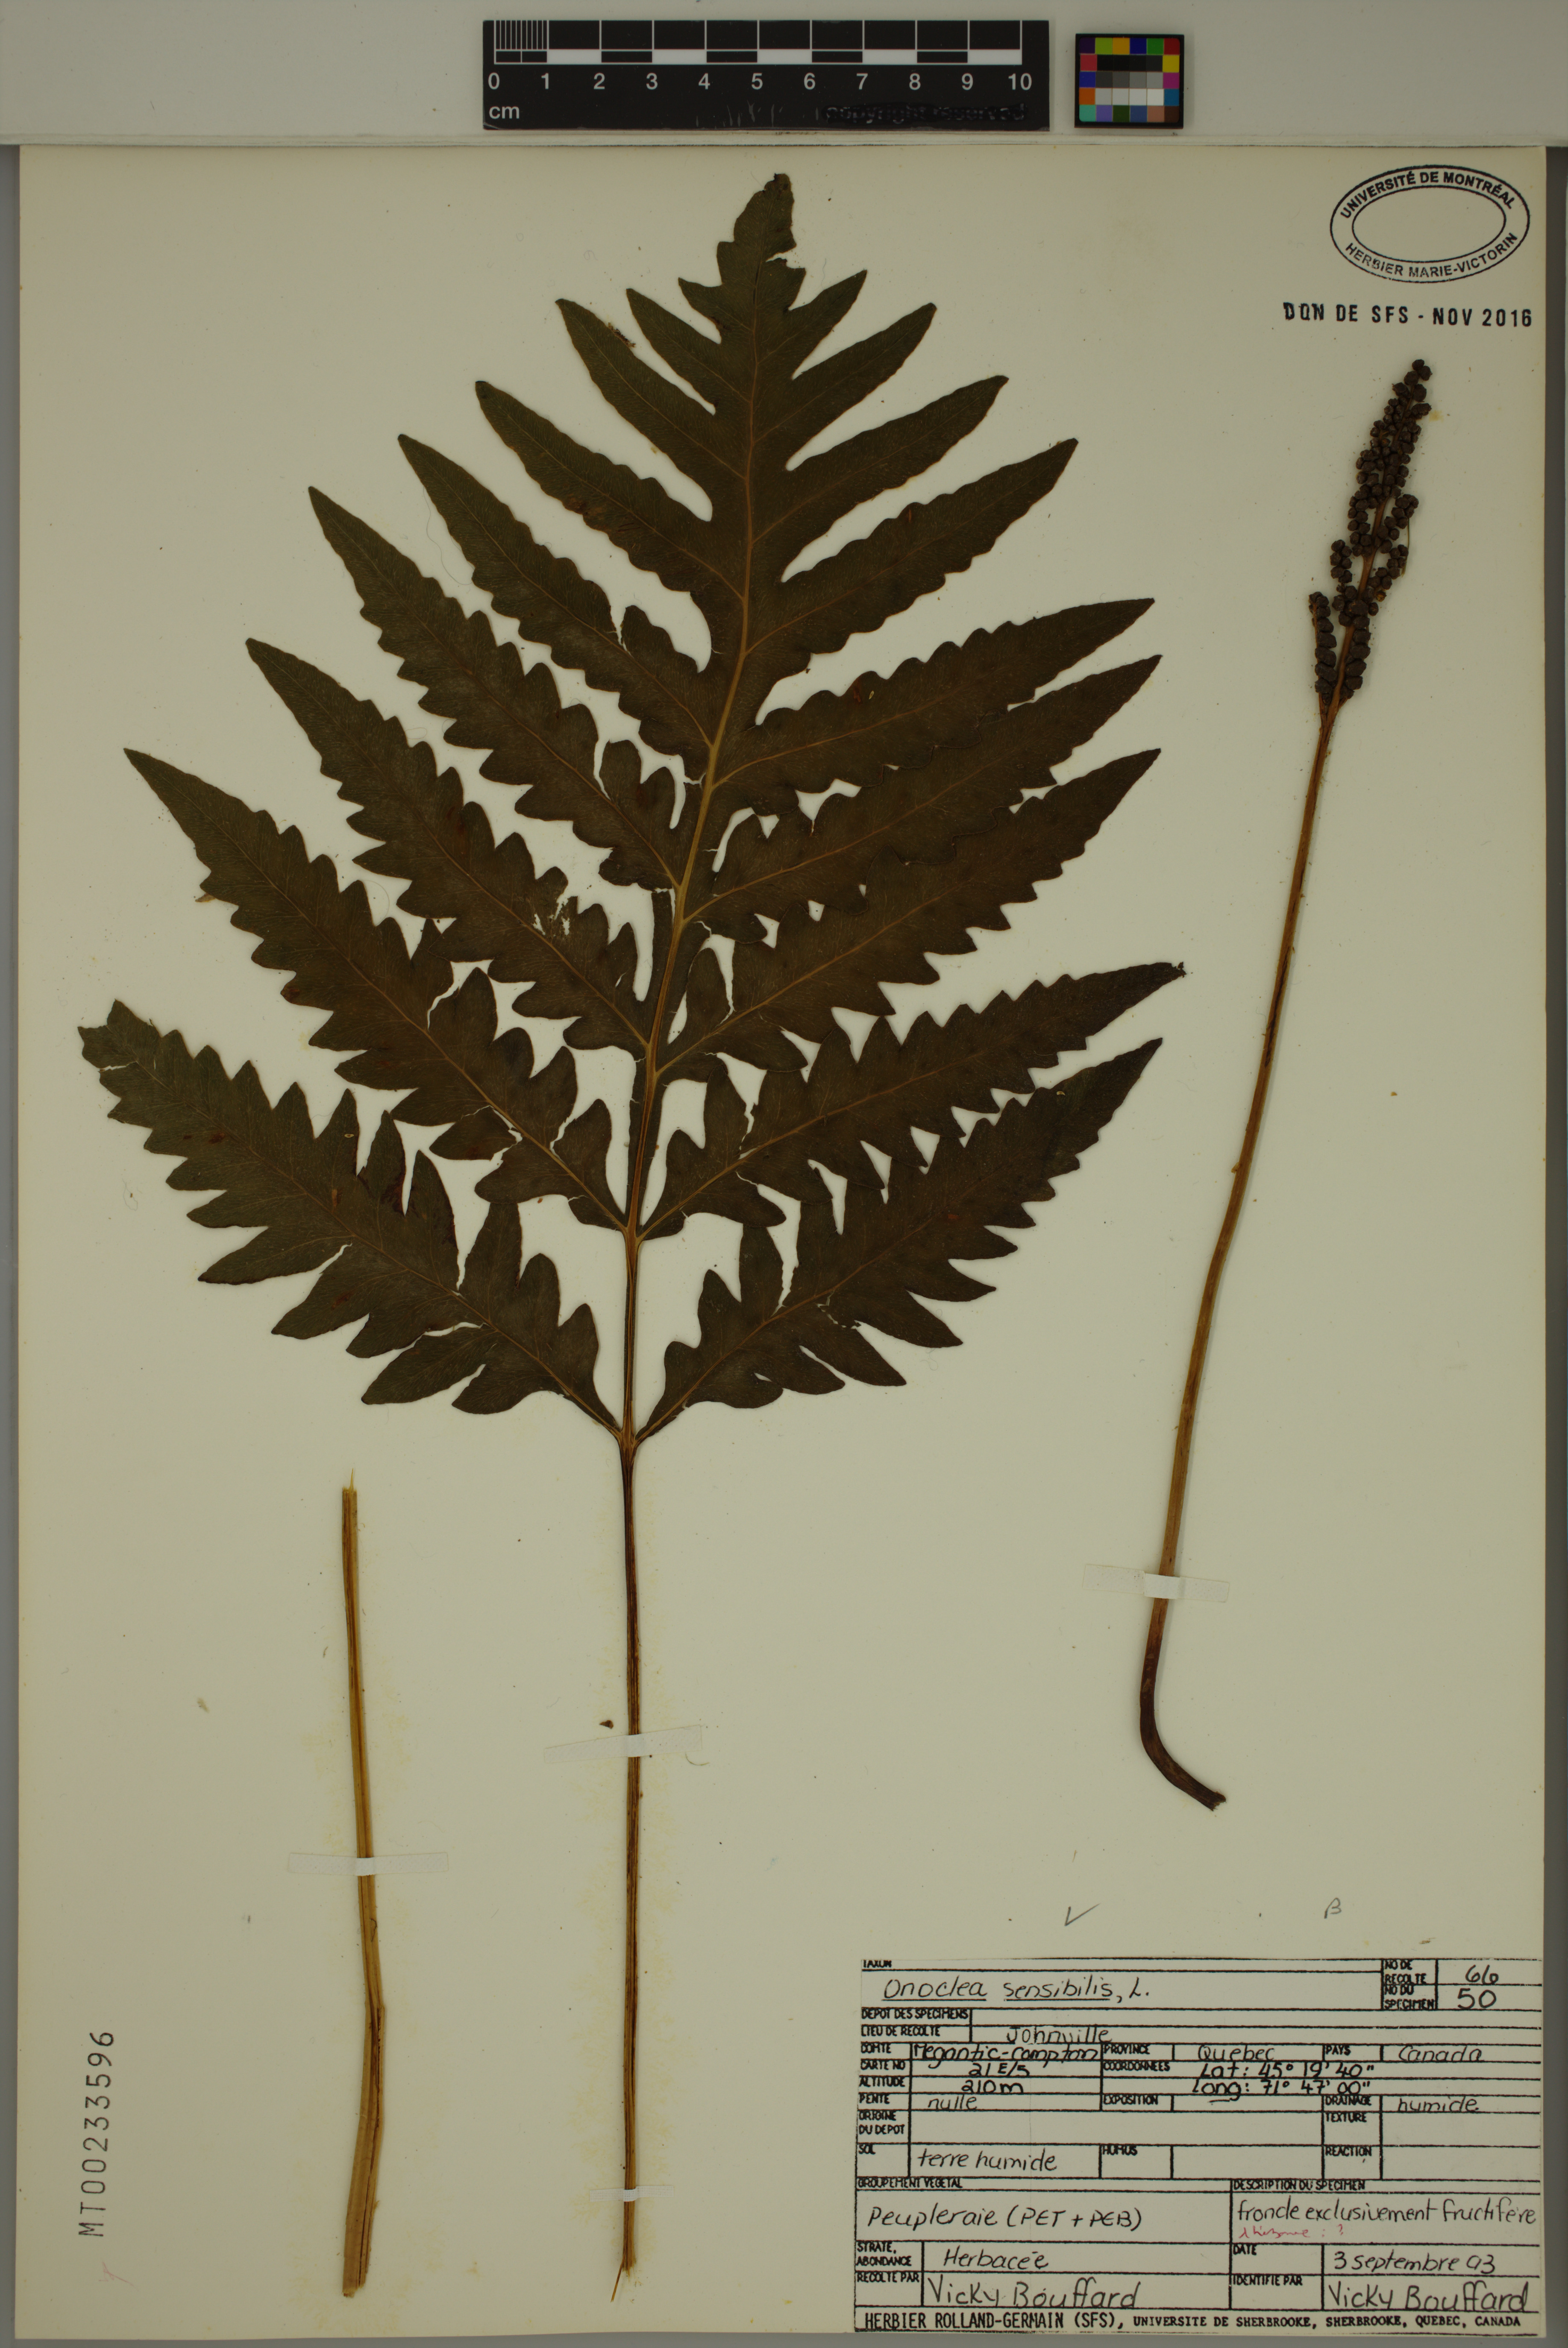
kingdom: Plantae
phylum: Tracheophyta
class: Polypodiopsida
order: Polypodiales
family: Onocleaceae
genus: Onoclea
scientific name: Onoclea sensibilis
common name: Sensitive fern
